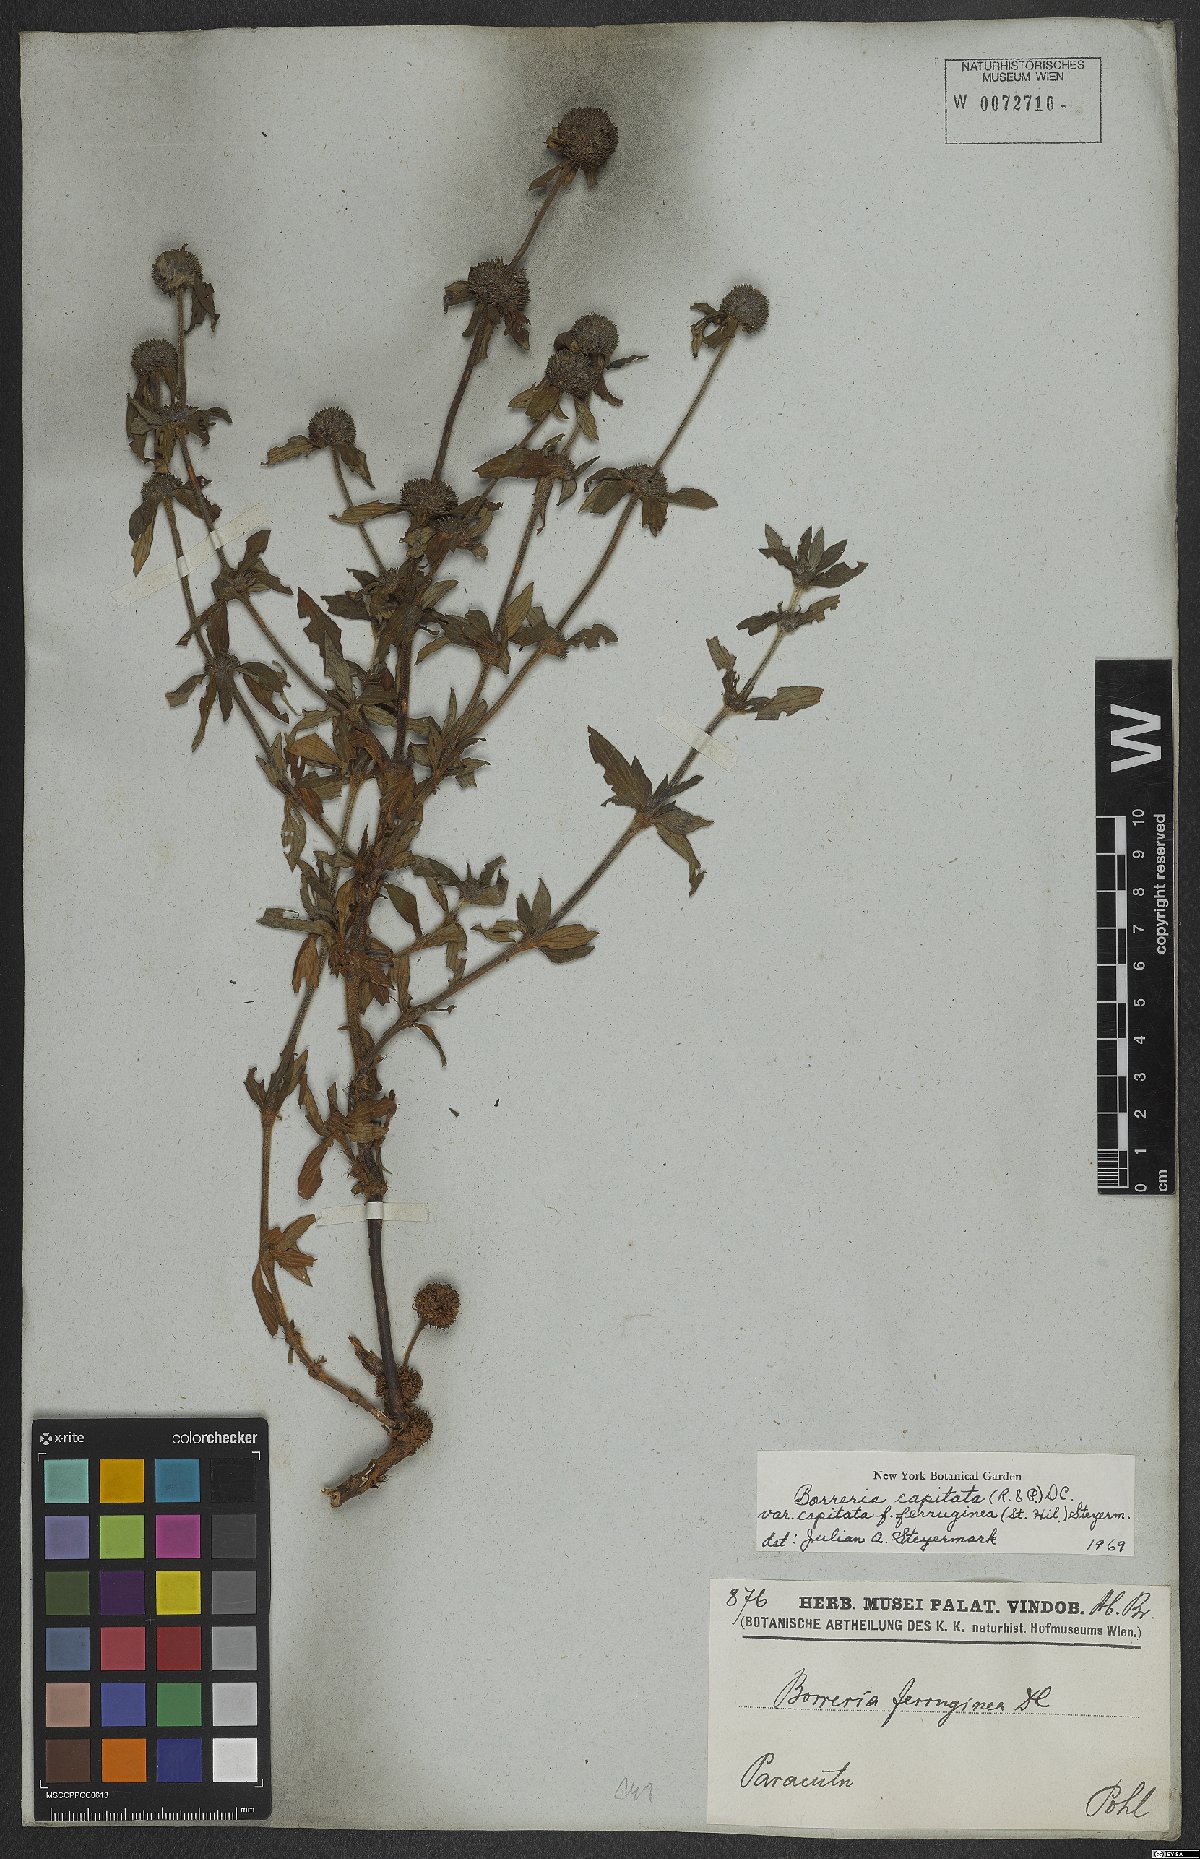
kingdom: Plantae
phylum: Tracheophyta
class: Magnoliopsida
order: Gentianales
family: Rubiaceae
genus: Spermacoce
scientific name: Spermacoce capitata
